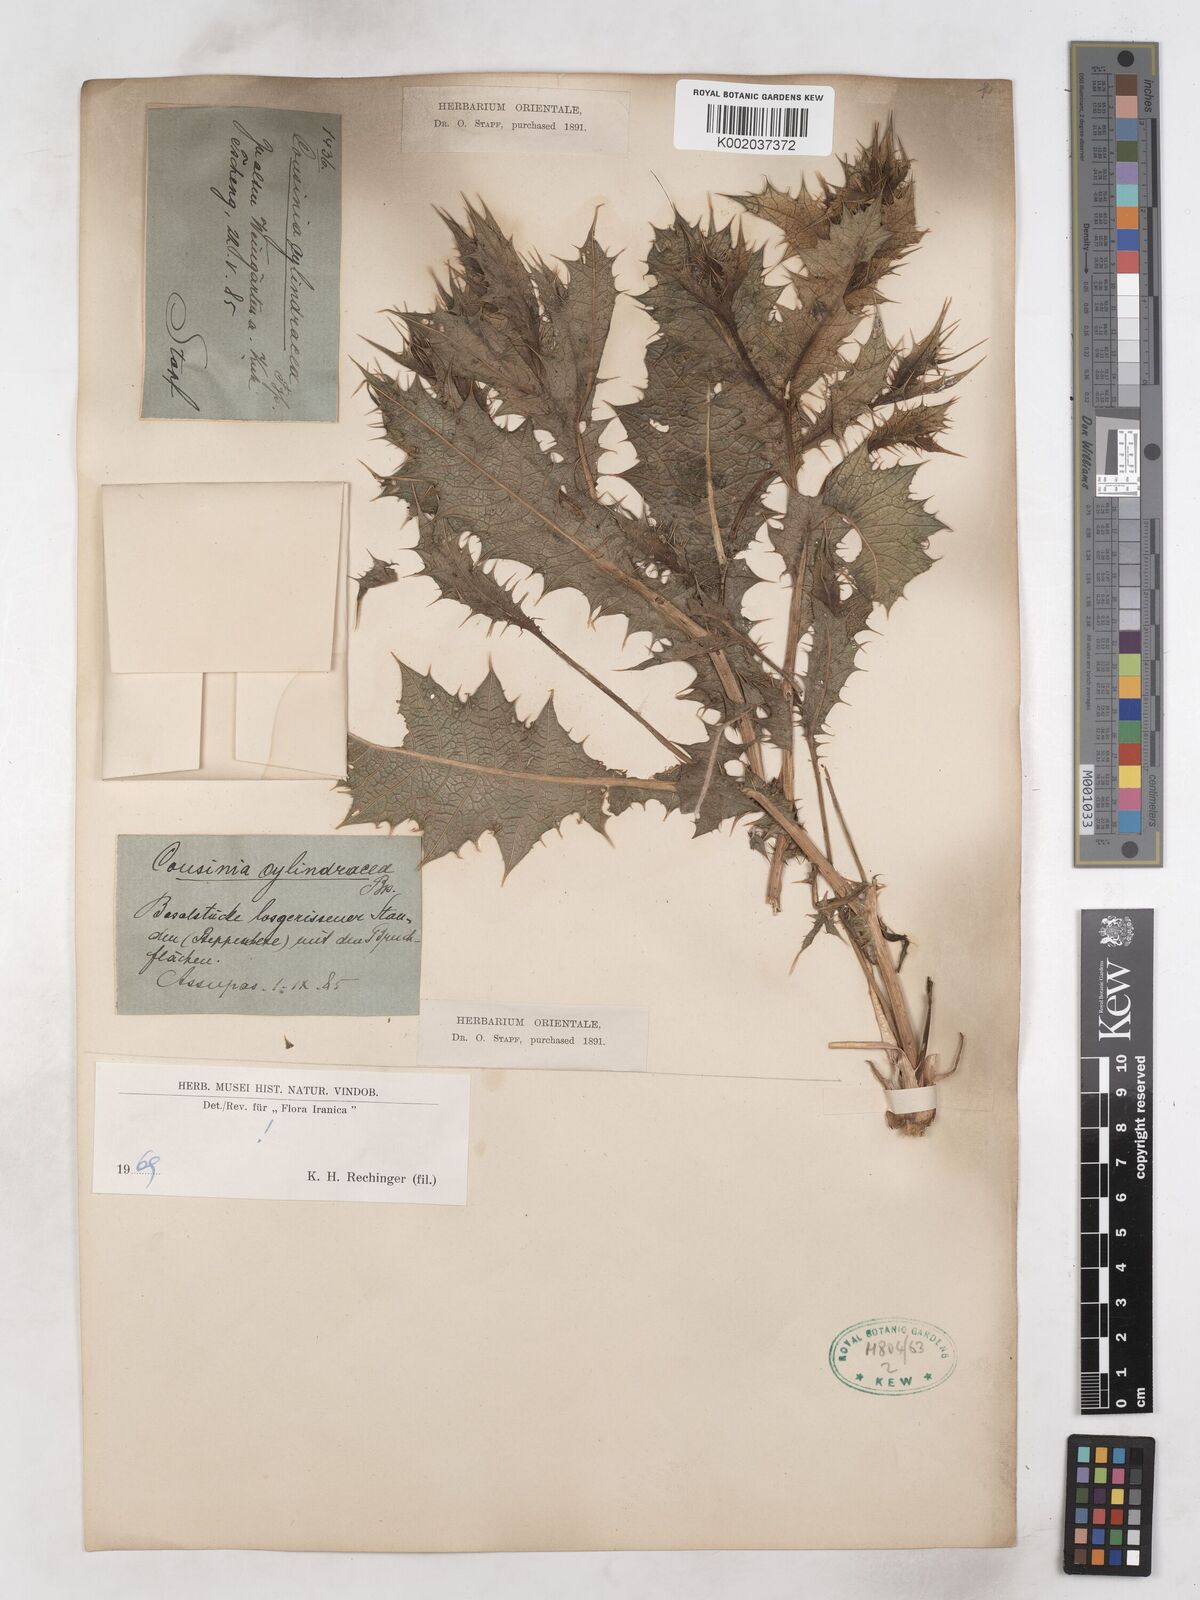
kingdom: Plantae
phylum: Tracheophyta
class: Magnoliopsida
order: Asterales
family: Asteraceae
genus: Cousinia
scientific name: Cousinia cylindracea
